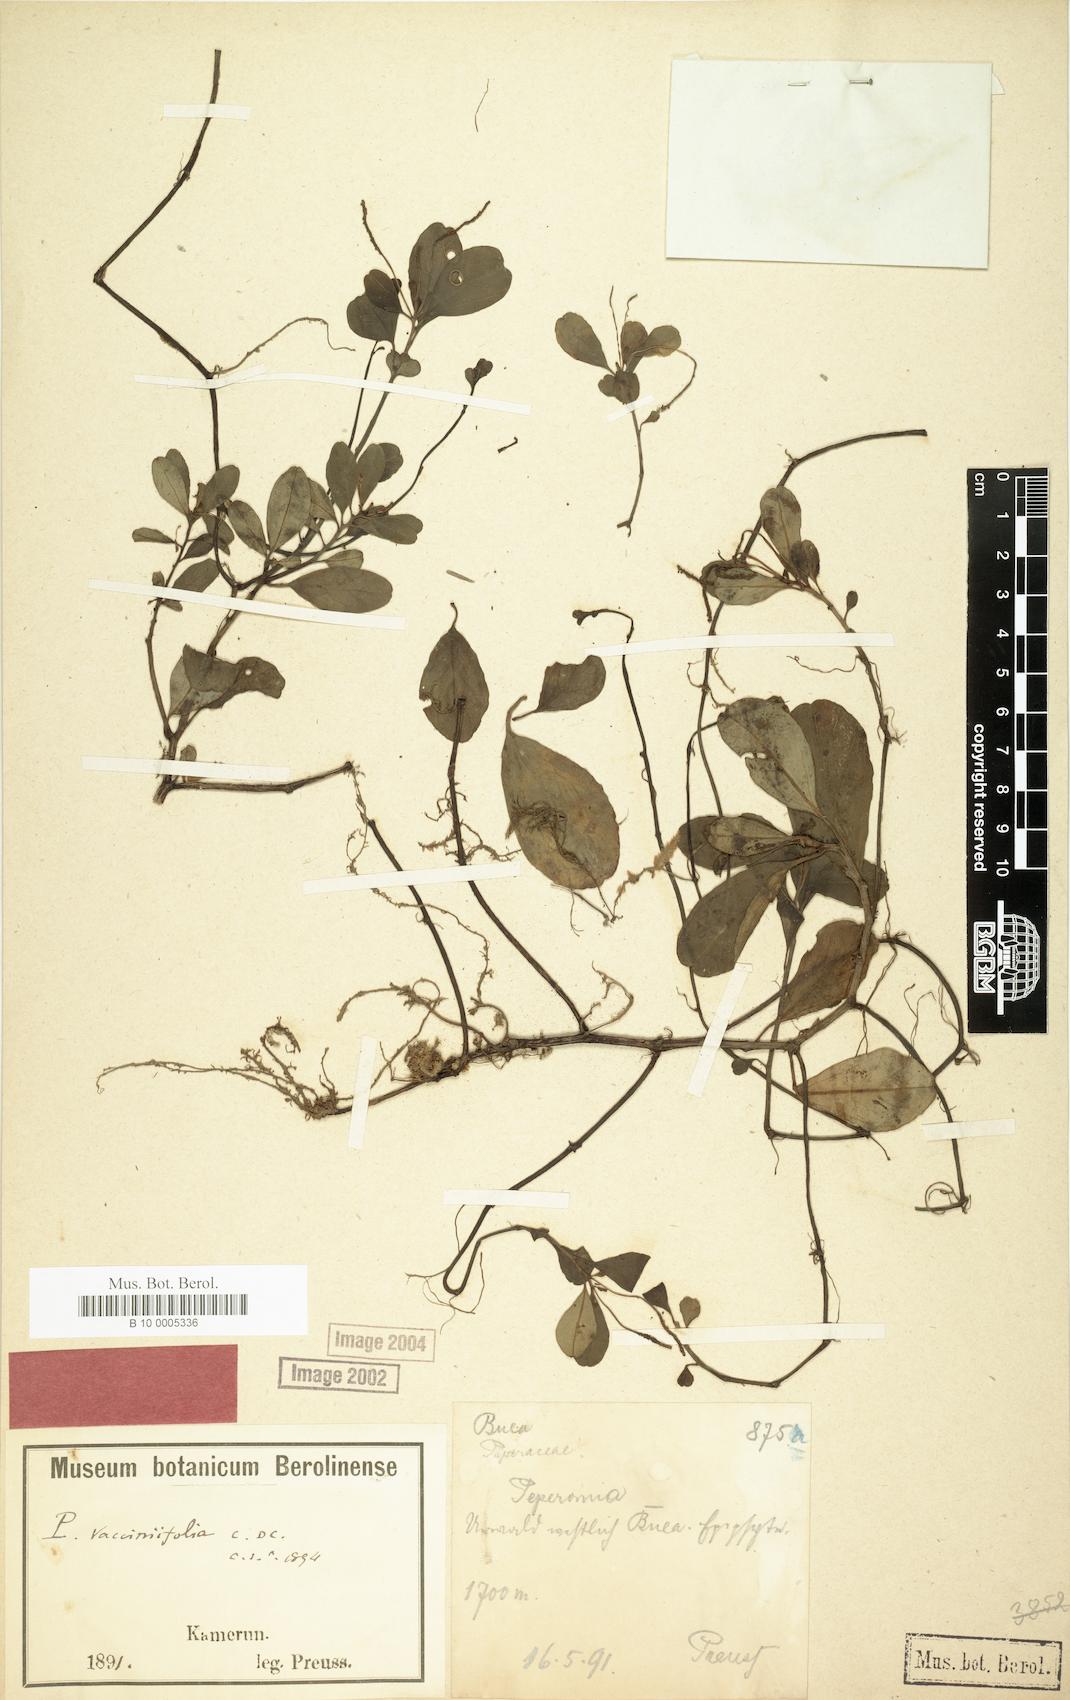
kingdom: Plantae
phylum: Tracheophyta
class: Magnoliopsida
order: Piperales
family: Piperaceae
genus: Peperomia
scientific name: Peperomia thomeana
